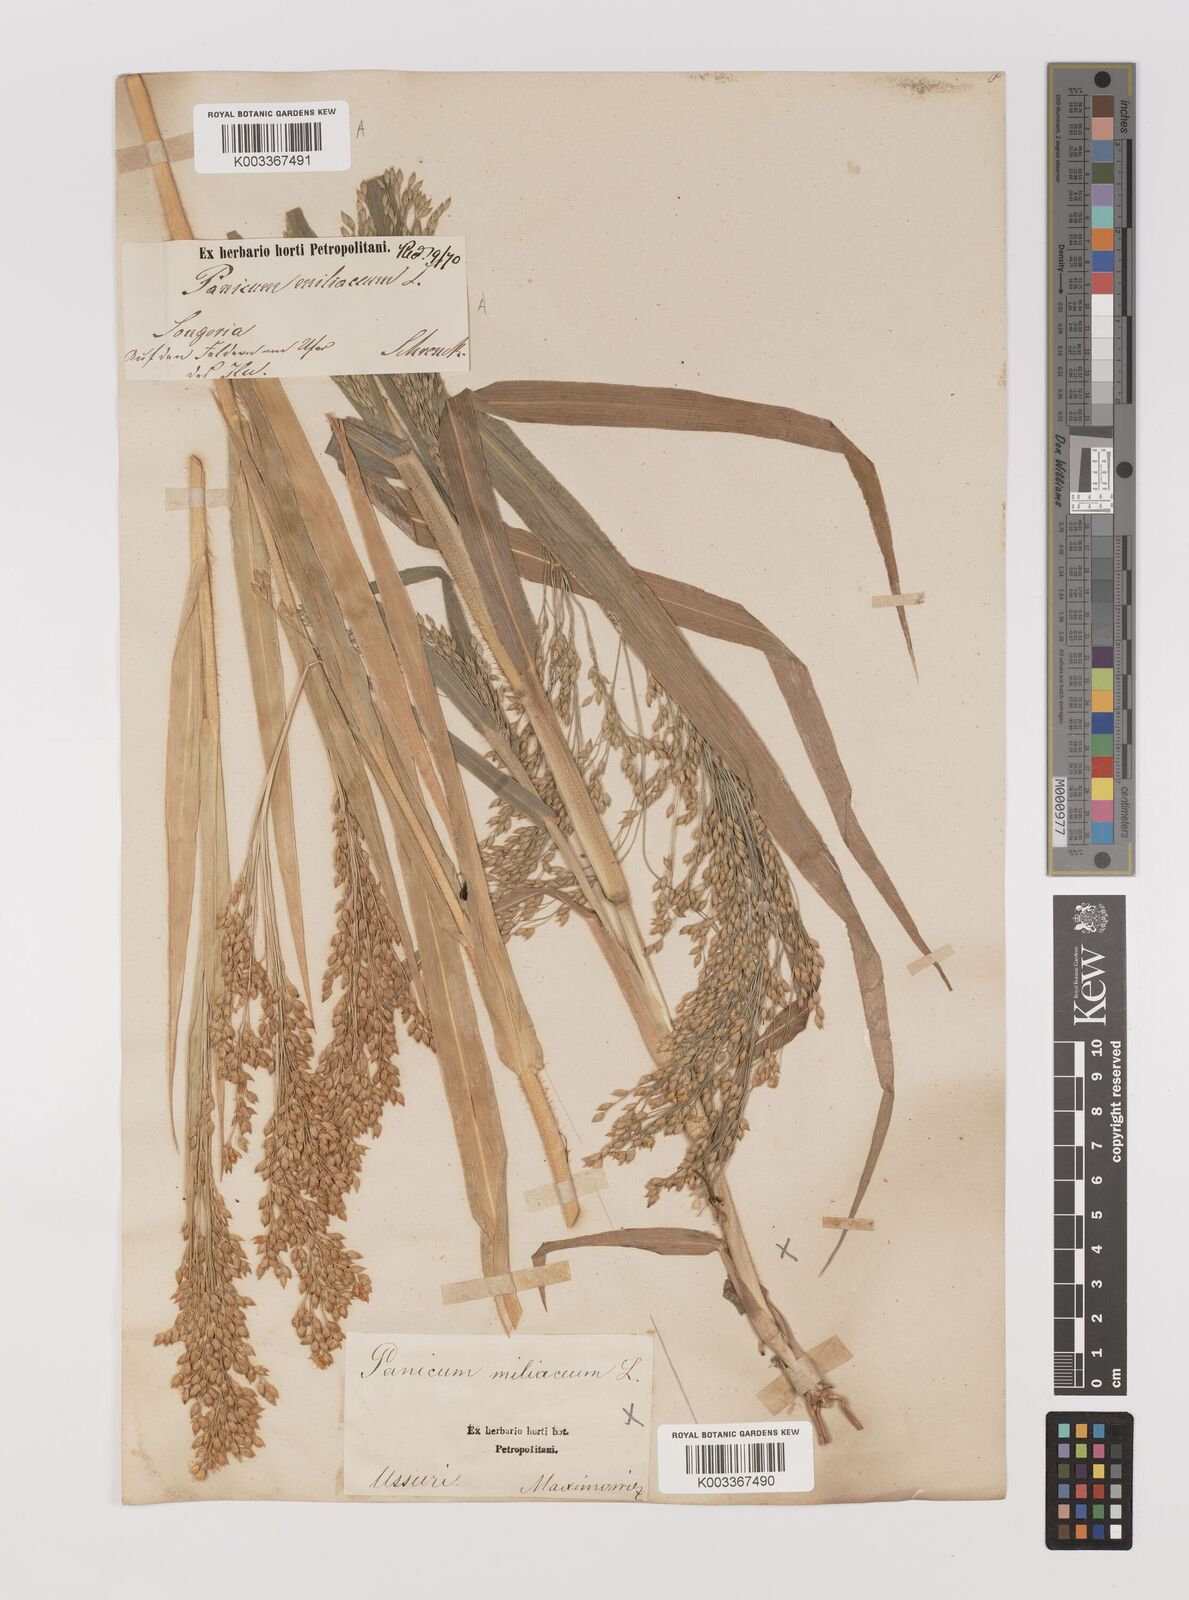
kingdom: Plantae
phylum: Tracheophyta
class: Liliopsida
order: Poales
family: Poaceae
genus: Panicum
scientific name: Panicum miliaceum
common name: Common millet
